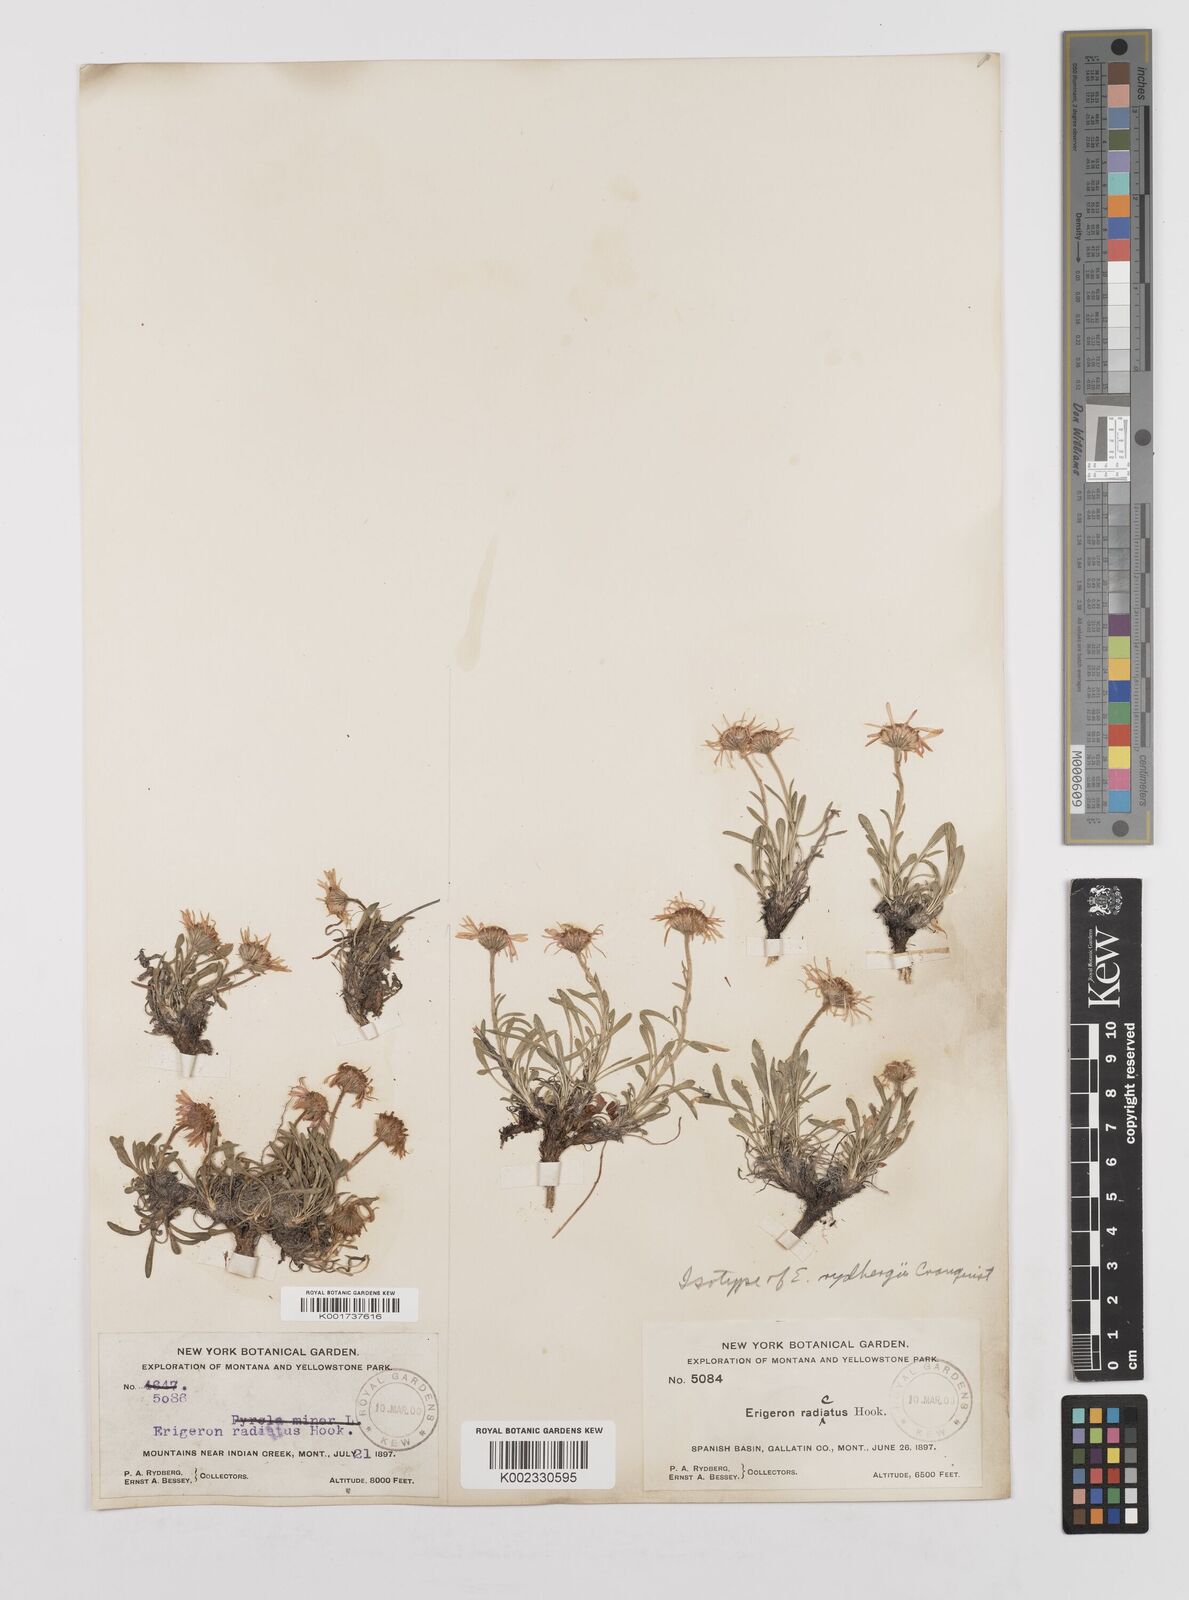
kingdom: Plantae
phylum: Tracheophyta
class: Magnoliopsida
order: Asterales
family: Asteraceae
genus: Erigeron
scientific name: Erigeron radicatus
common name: Dwarf fleabane
